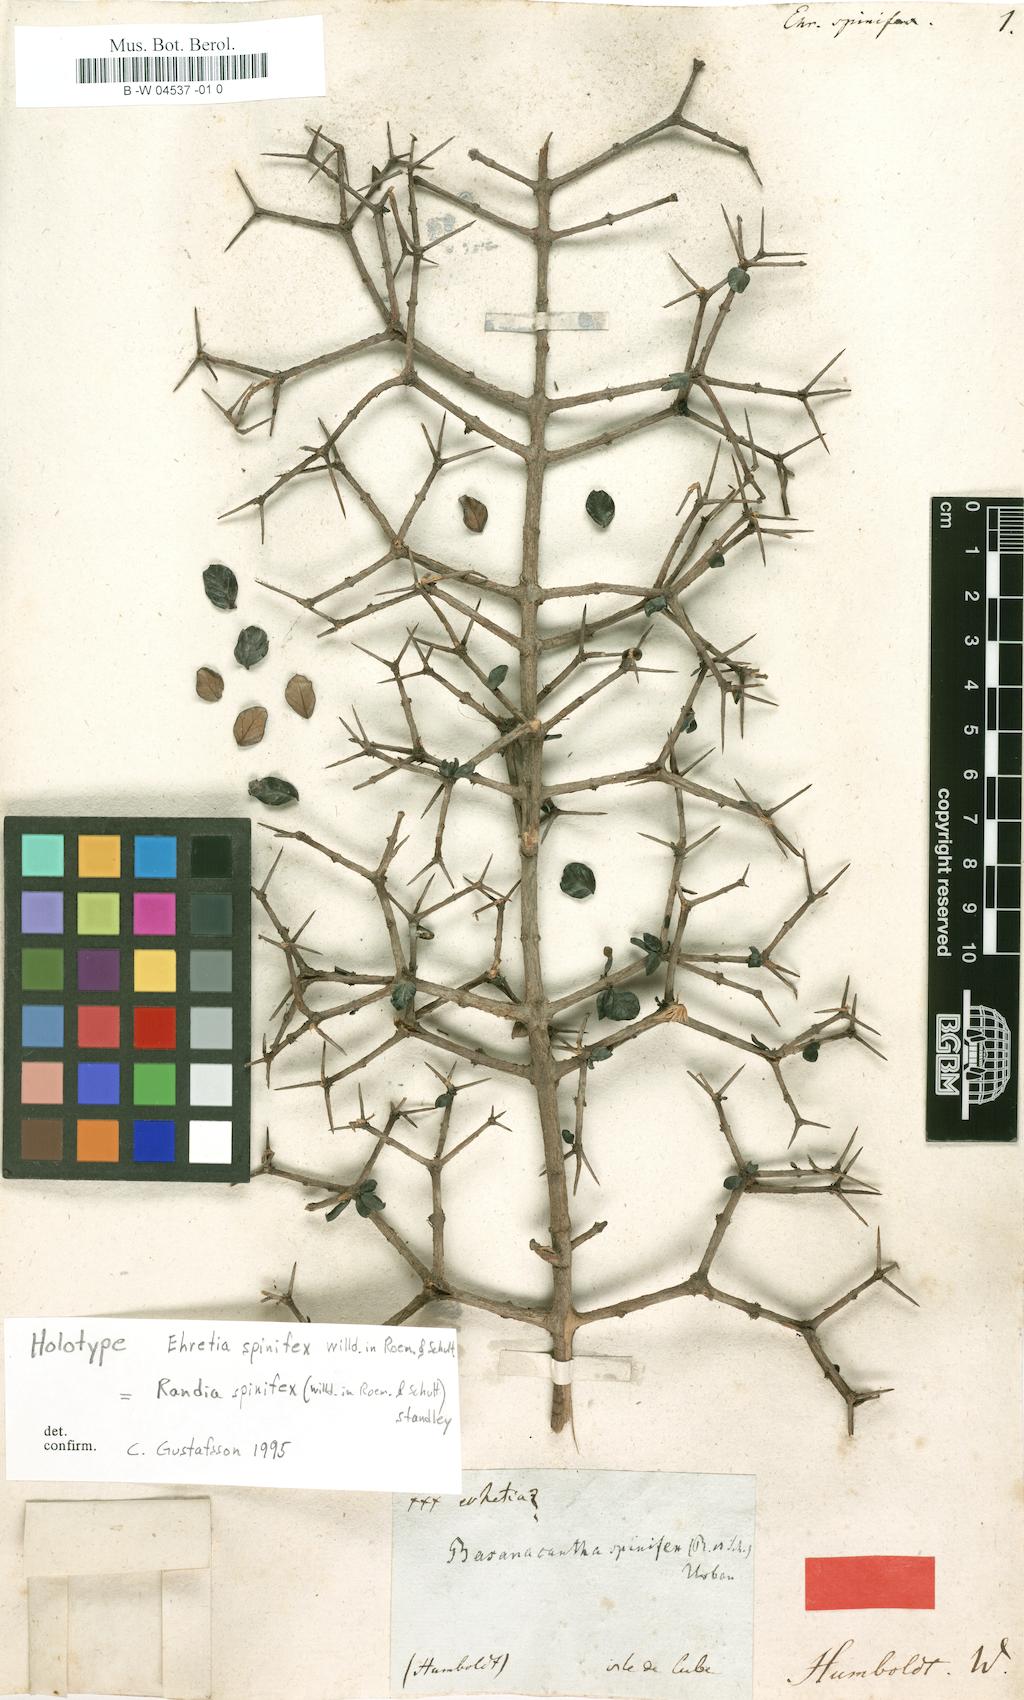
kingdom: Plantae
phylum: Tracheophyta
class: Magnoliopsida
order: Gentianales
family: Rubiaceae
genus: Randia
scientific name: Randia spinifex
